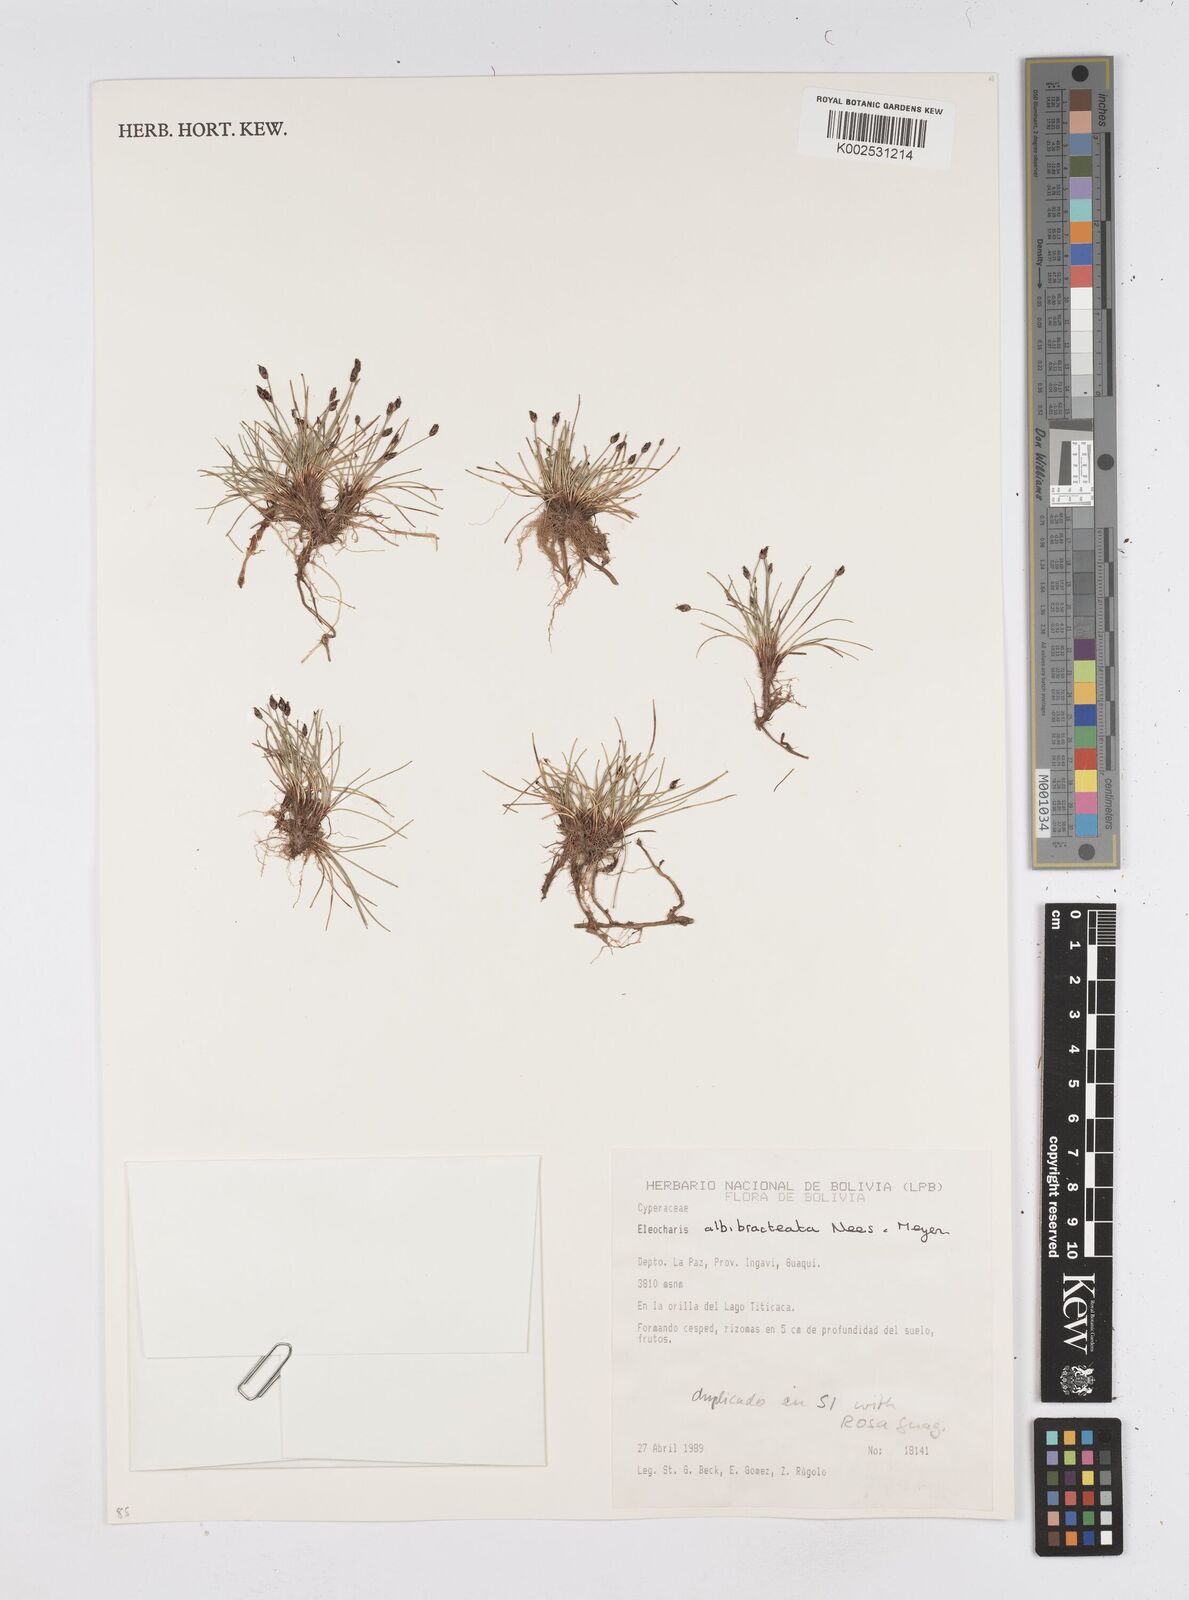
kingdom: Plantae
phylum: Tracheophyta
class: Liliopsida
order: Poales
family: Cyperaceae
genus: Eleocharis
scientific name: Eleocharis albibracteata
